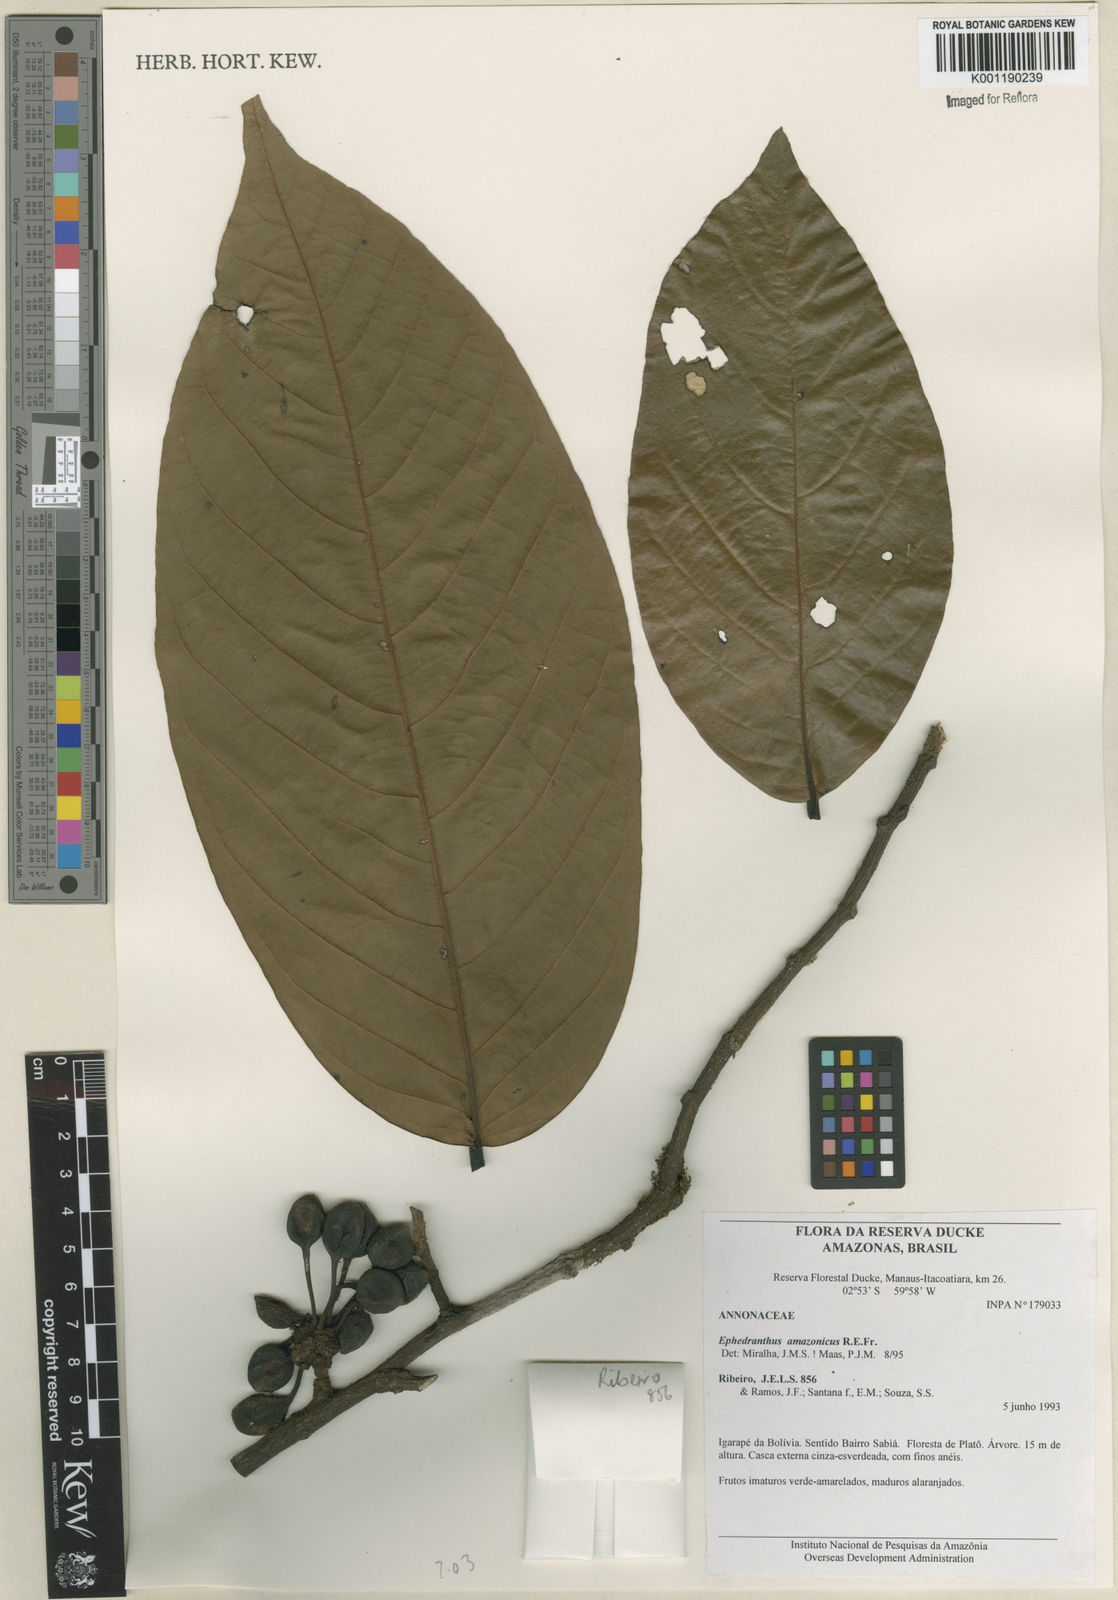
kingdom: Plantae
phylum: Tracheophyta
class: Magnoliopsida
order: Magnoliales
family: Annonaceae
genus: Ephedranthus
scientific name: Ephedranthus amazonicus
